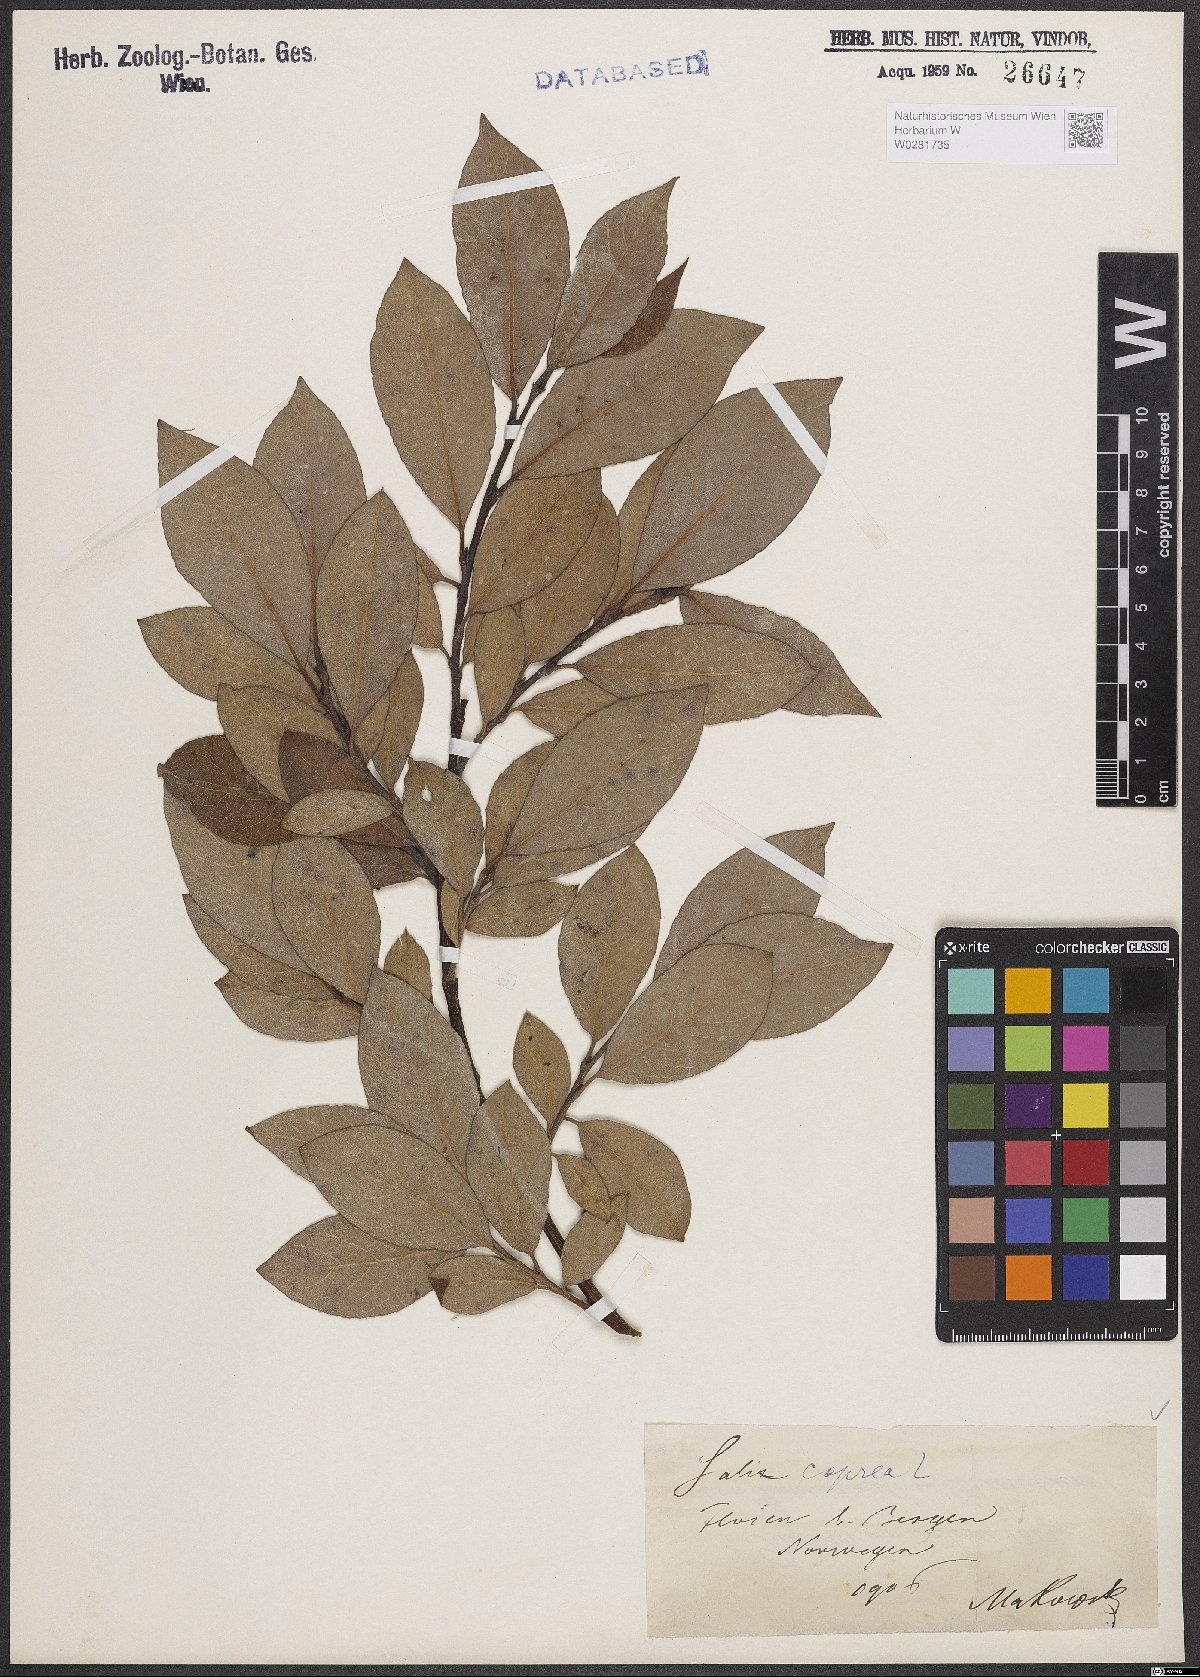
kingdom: Plantae
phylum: Tracheophyta
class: Magnoliopsida
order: Malpighiales
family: Salicaceae
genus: Salix
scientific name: Salix caprea
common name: Goat willow
